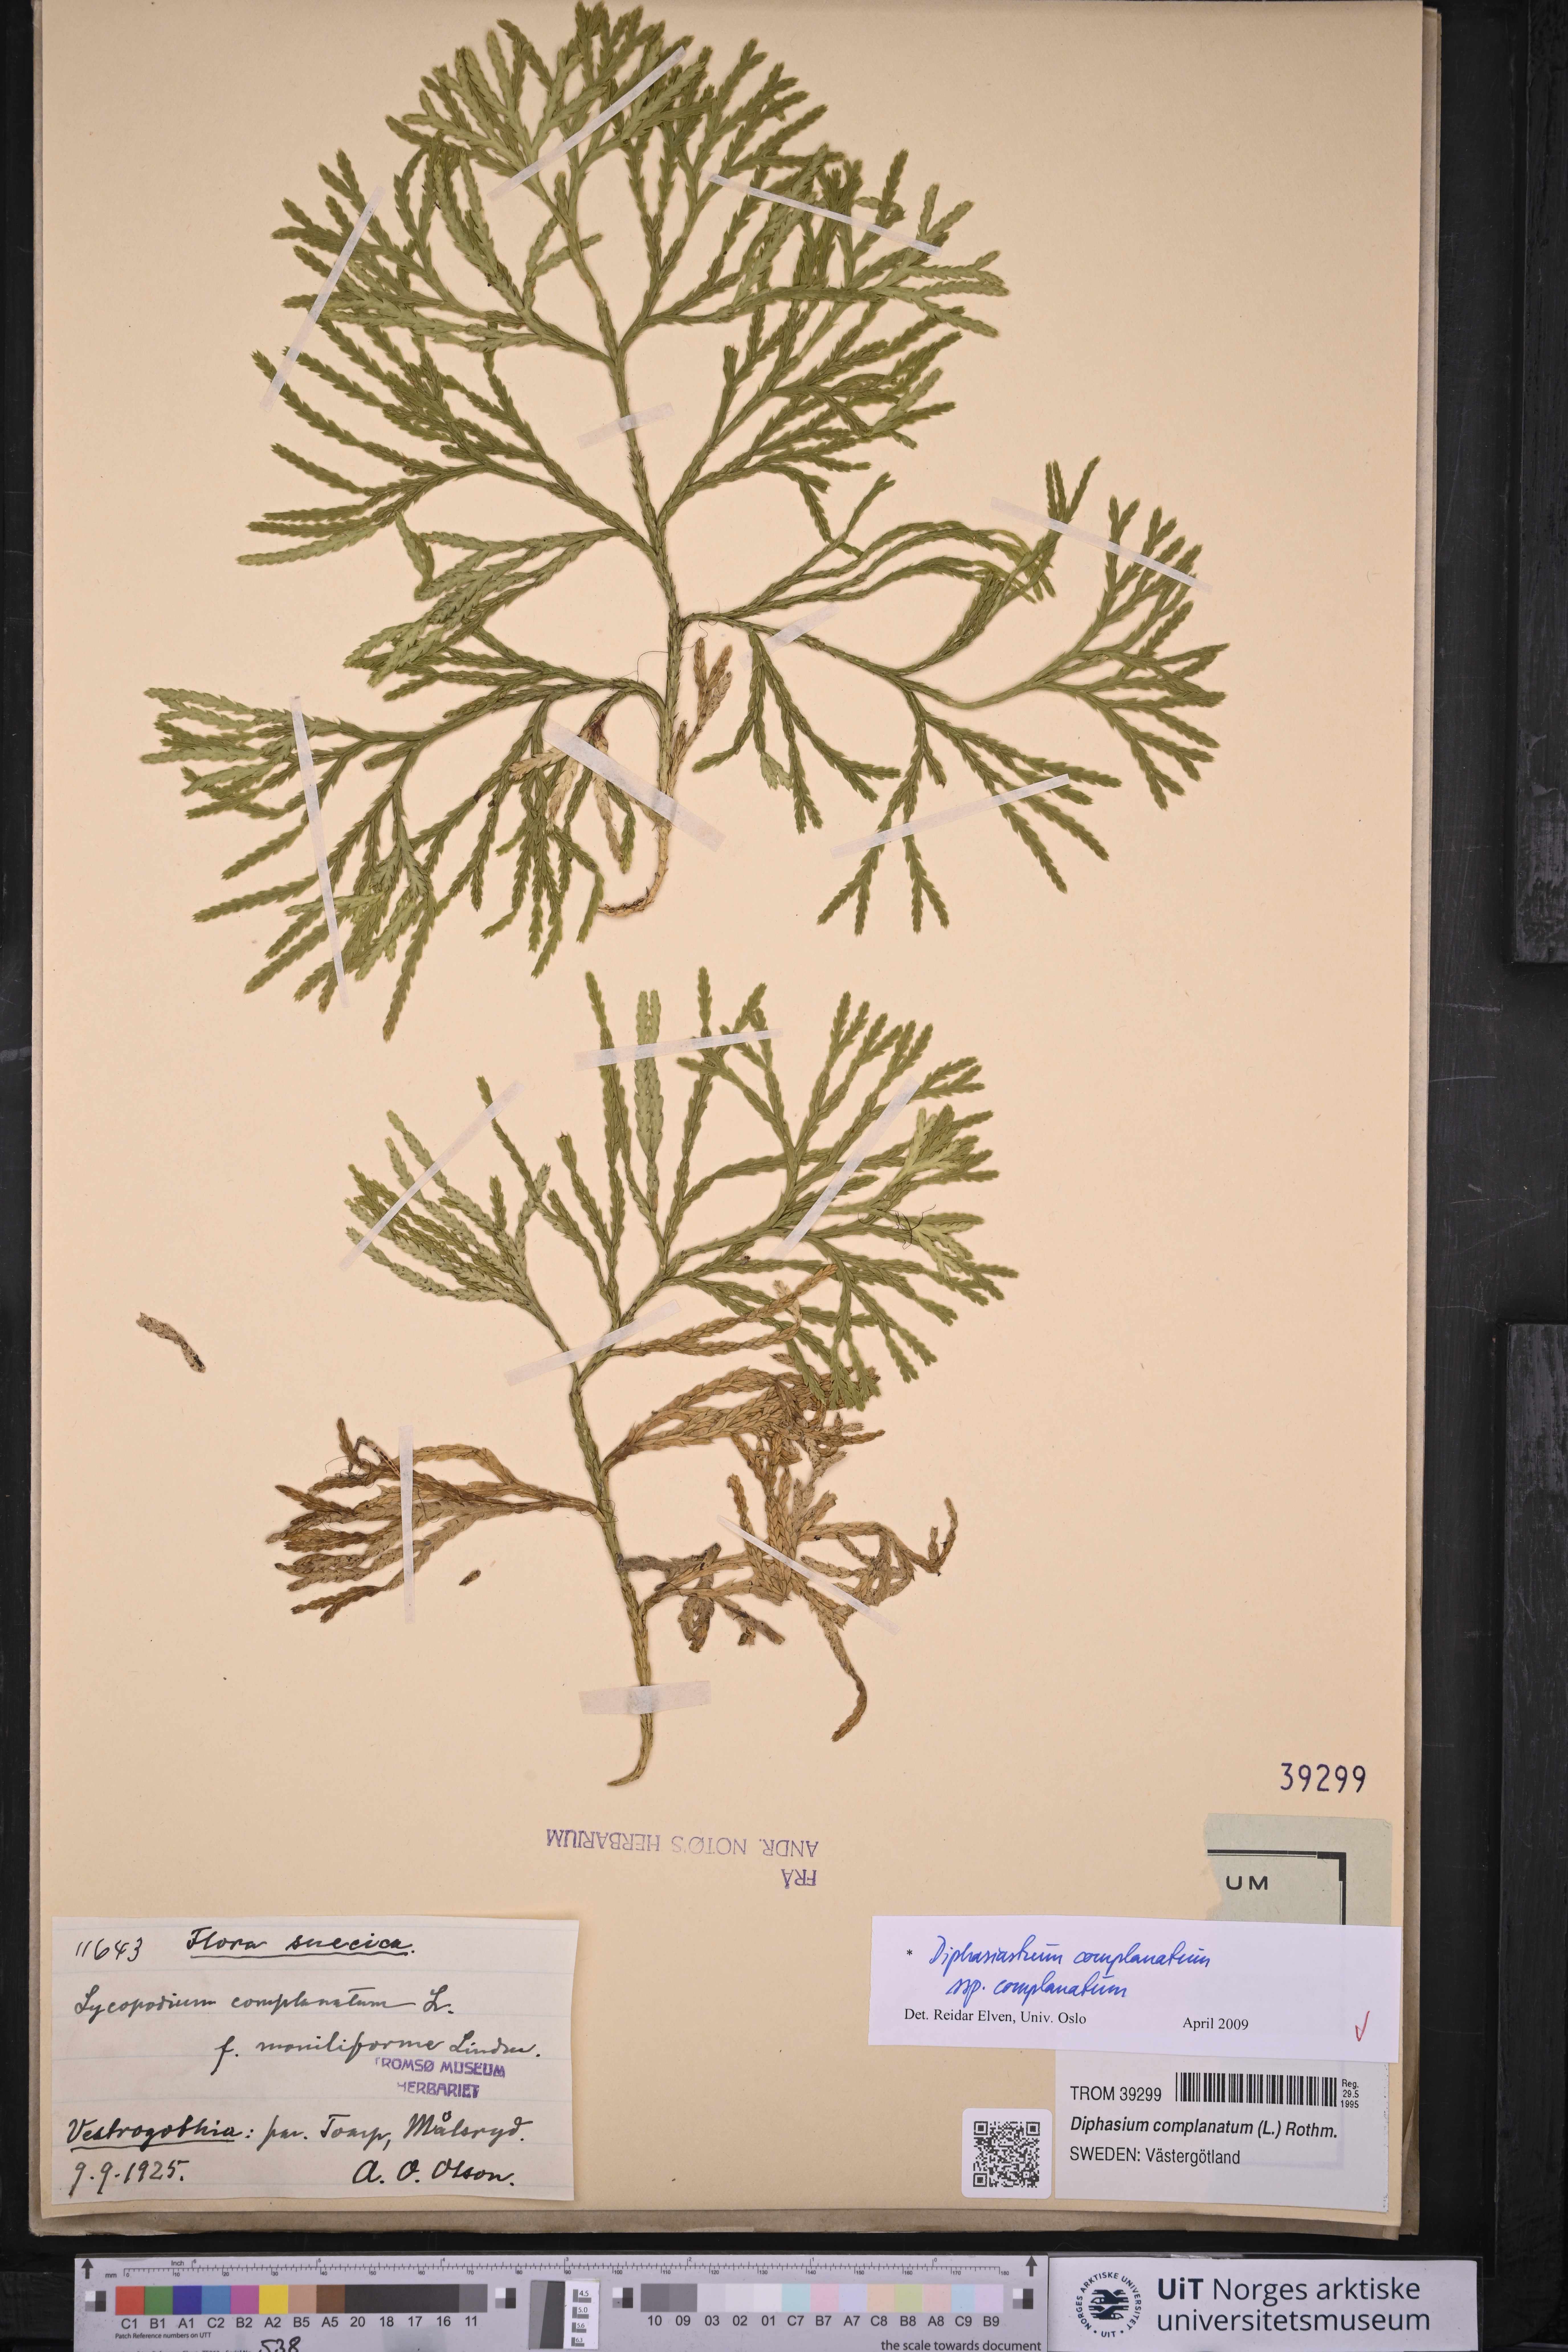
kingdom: Plantae
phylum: Tracheophyta
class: Lycopodiopsida
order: Lycopodiales
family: Lycopodiaceae
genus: Diphasiastrum
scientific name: Diphasiastrum complanatum
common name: Northern running-pine
